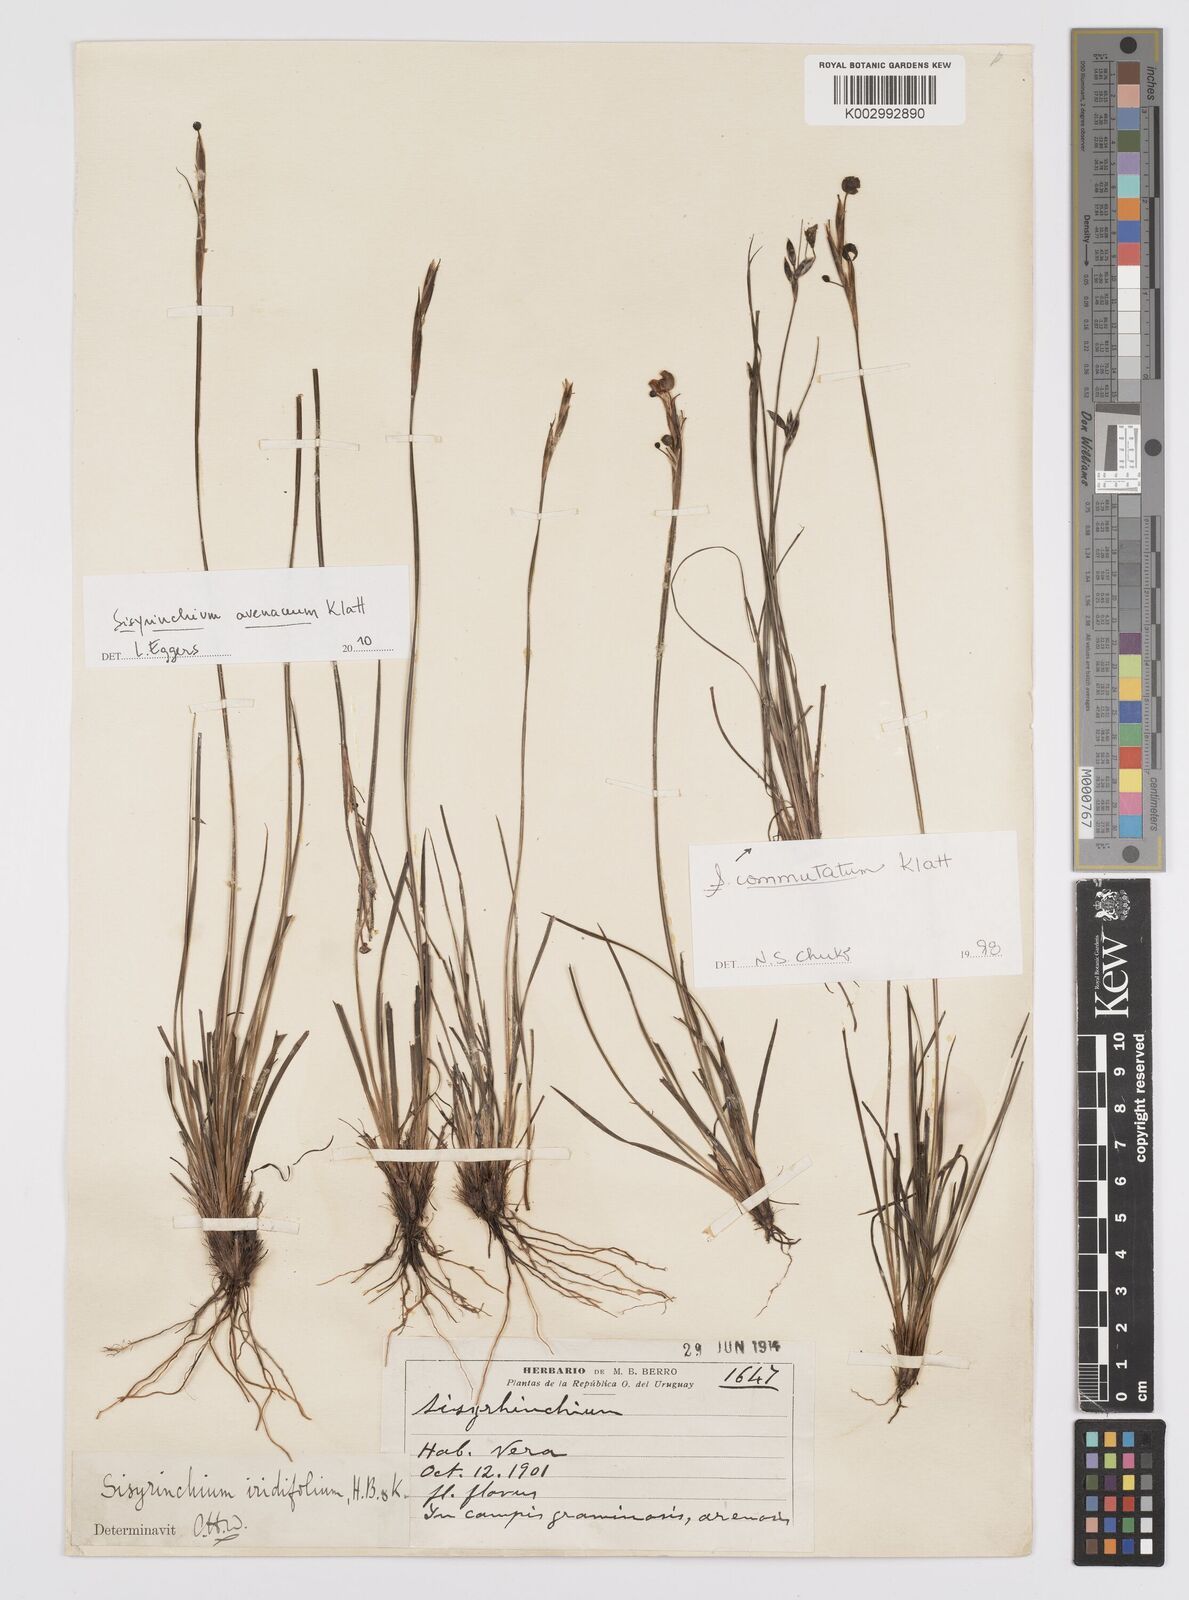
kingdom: Plantae
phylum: Tracheophyta
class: Liliopsida
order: Asparagales
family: Iridaceae
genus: Sisyrinchium
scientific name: Sisyrinchium avenaceum
